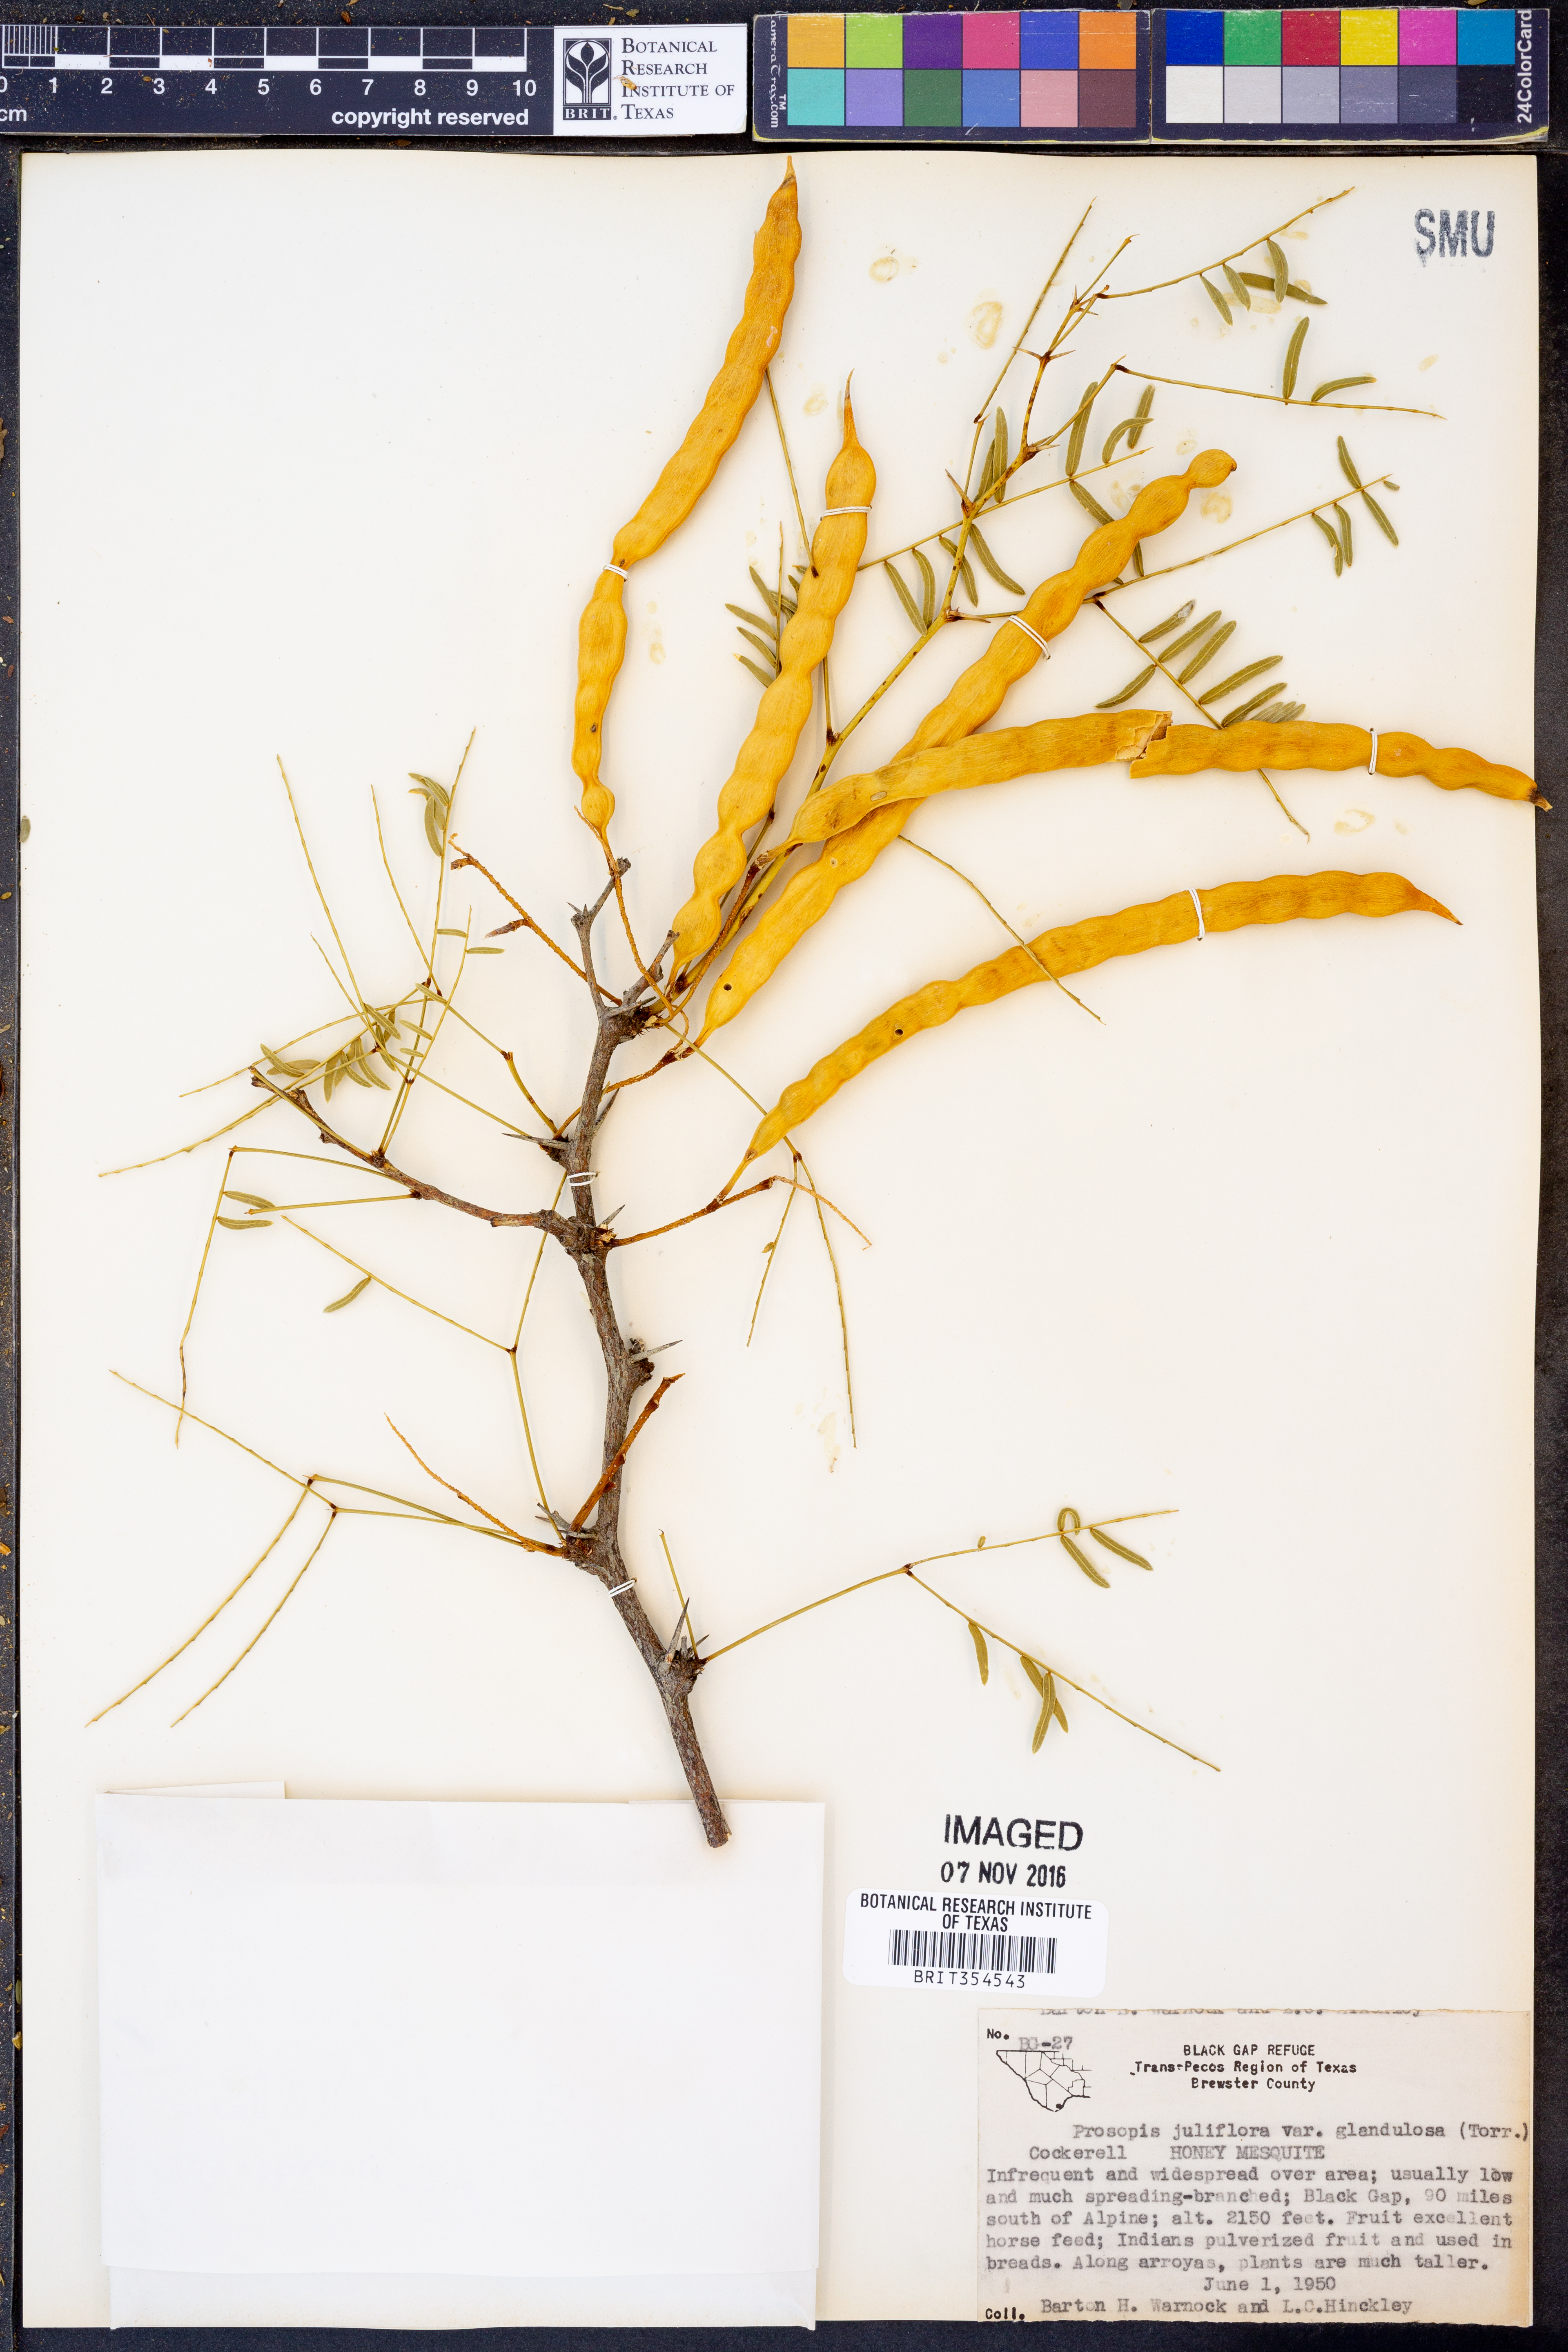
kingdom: Plantae
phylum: Tracheophyta
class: Magnoliopsida
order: Fabales
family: Fabaceae
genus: Prosopis
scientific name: Prosopis glandulosa
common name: Honey mesquite
